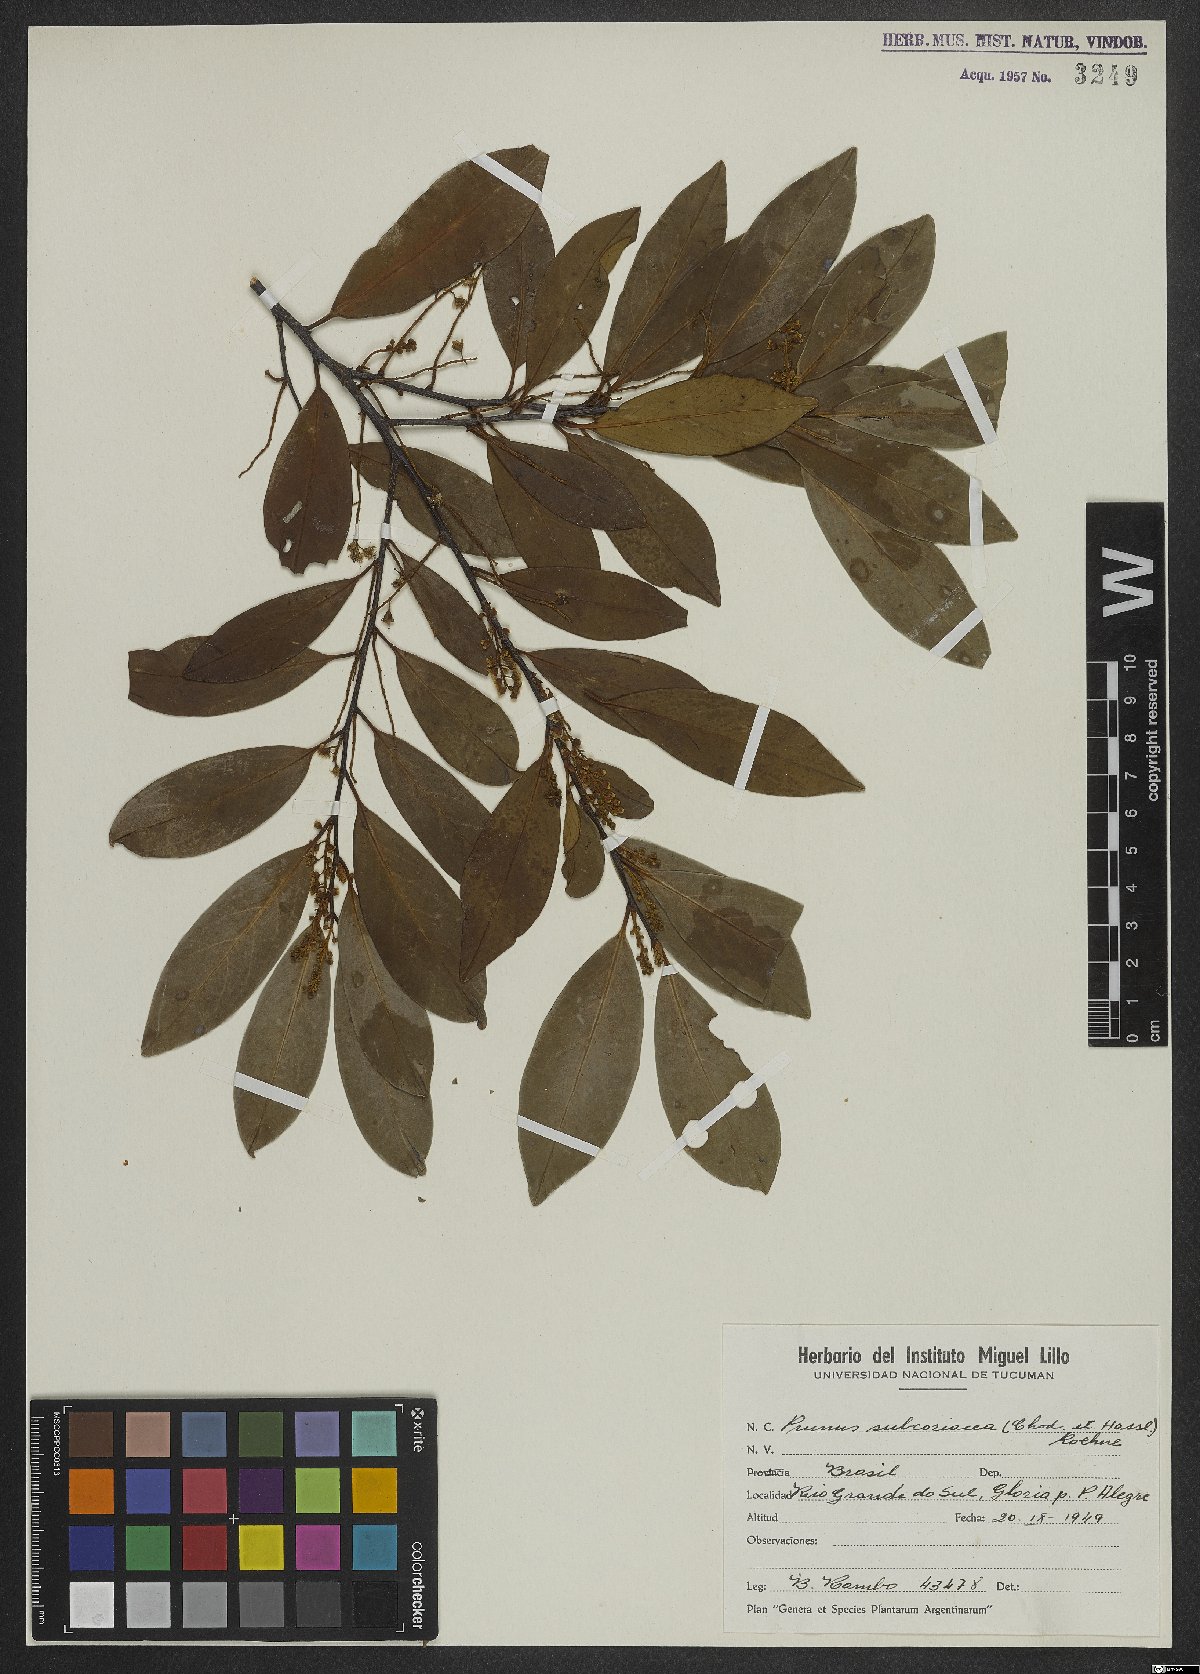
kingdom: Plantae
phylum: Tracheophyta
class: Magnoliopsida
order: Rosales
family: Rosaceae
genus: Prunus
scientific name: Prunus subcoriacea
